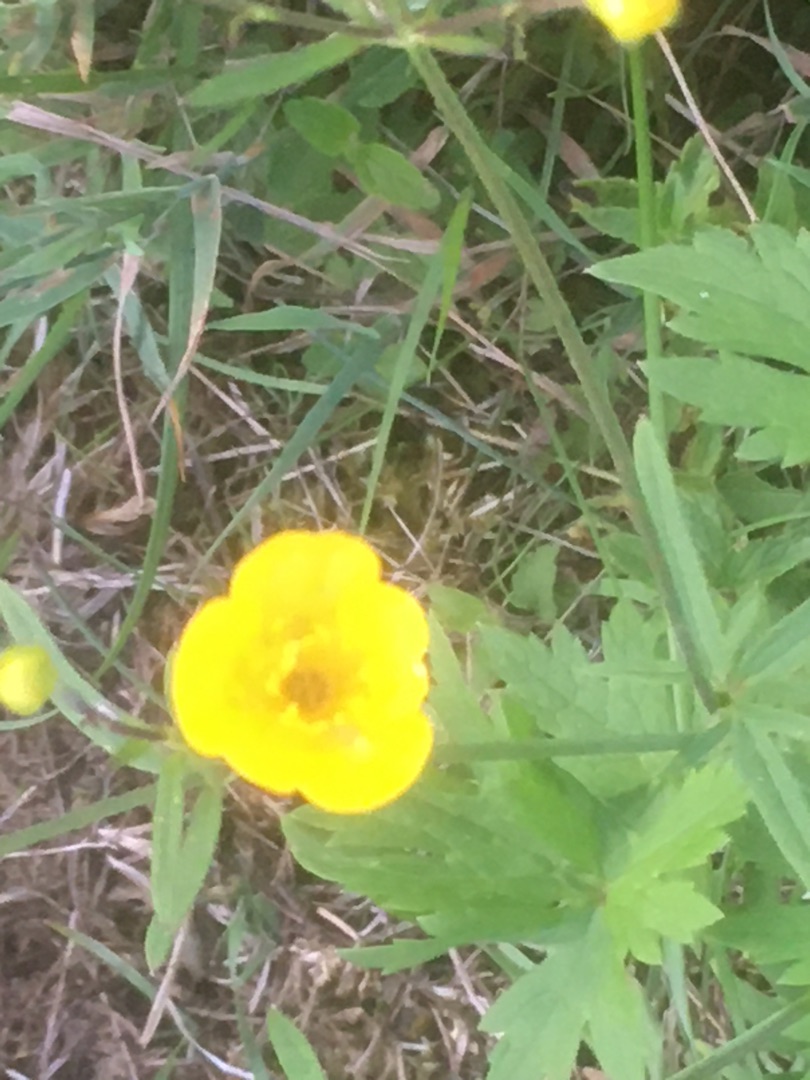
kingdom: Plantae
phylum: Tracheophyta
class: Magnoliopsida
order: Ranunculales
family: Ranunculaceae
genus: Ranunculus
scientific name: Ranunculus acris
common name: Bidende ranunkel
